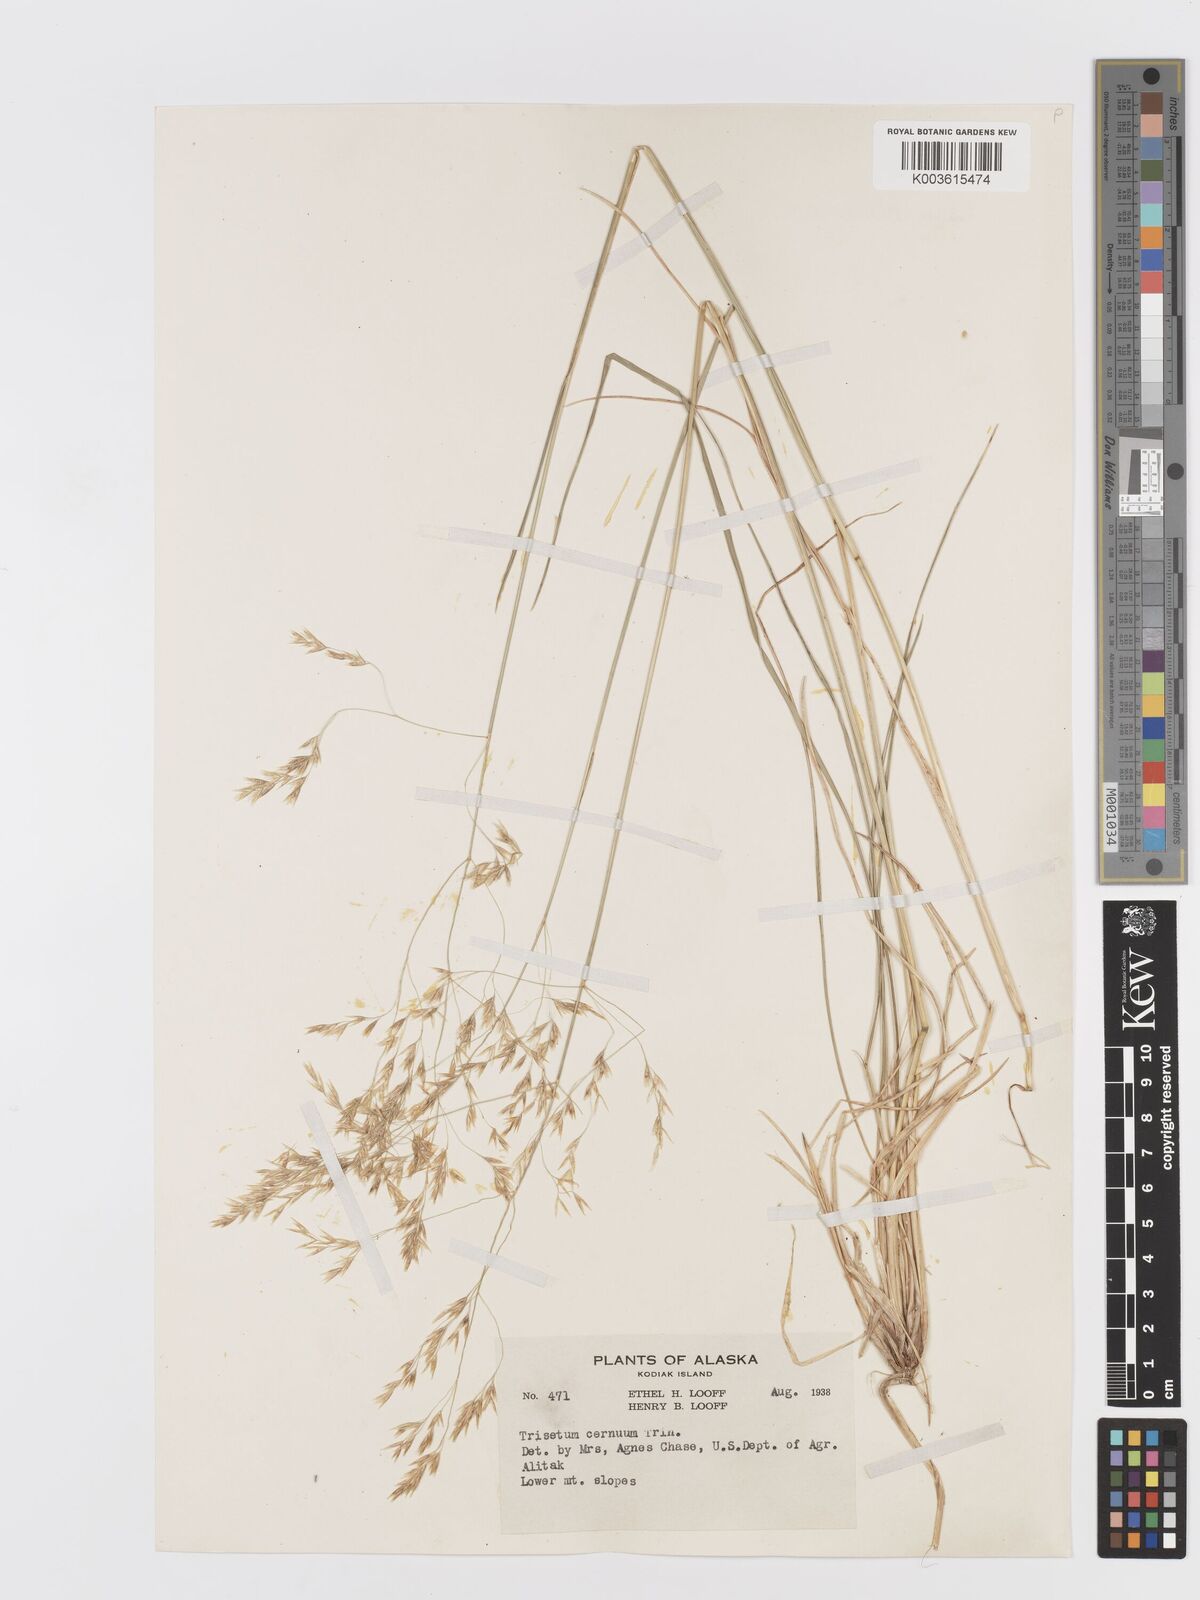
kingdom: Plantae
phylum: Tracheophyta
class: Liliopsida
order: Poales
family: Poaceae
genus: Graphephorum
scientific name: Graphephorum cernuum
